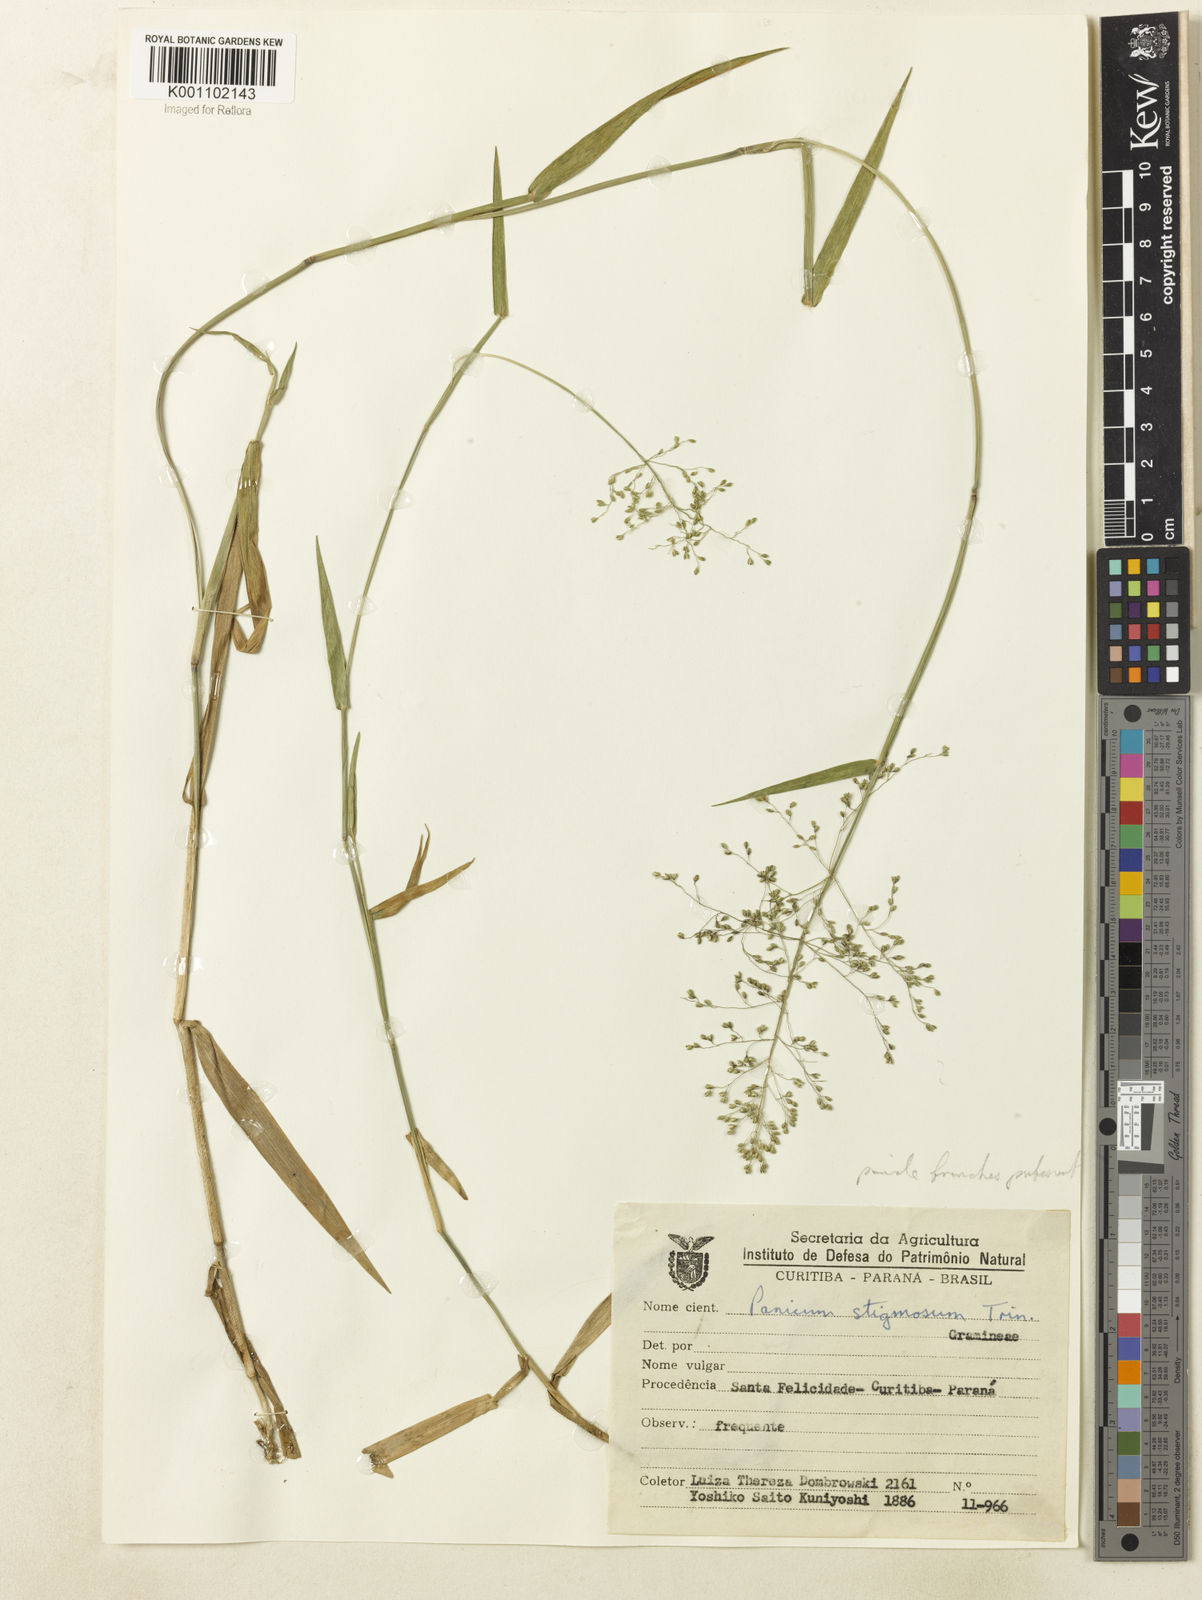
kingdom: Plantae
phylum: Tracheophyta
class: Liliopsida
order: Poales
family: Poaceae
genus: Dichanthelium
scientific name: Dichanthelium stigmosum
